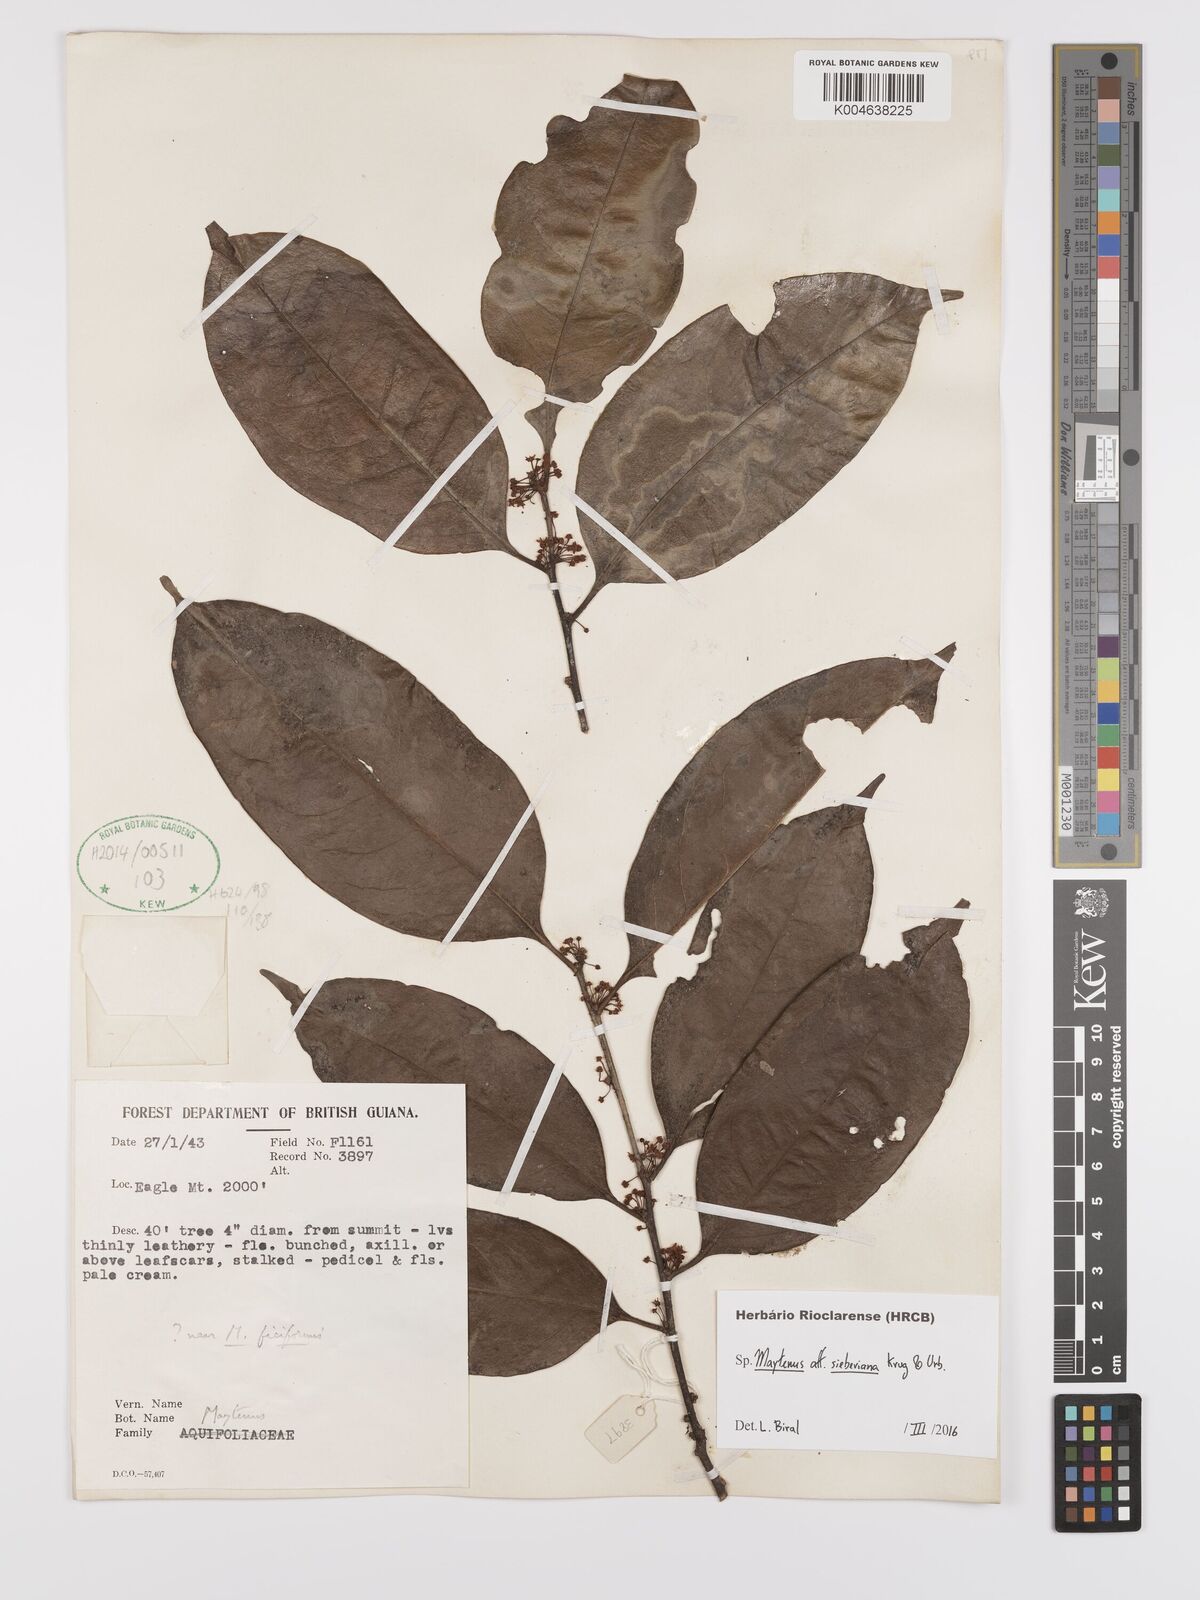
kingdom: Plantae
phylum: Tracheophyta
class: Magnoliopsida
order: Celastrales
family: Celastraceae
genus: Monteverdia
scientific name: Monteverdia sieberiana
